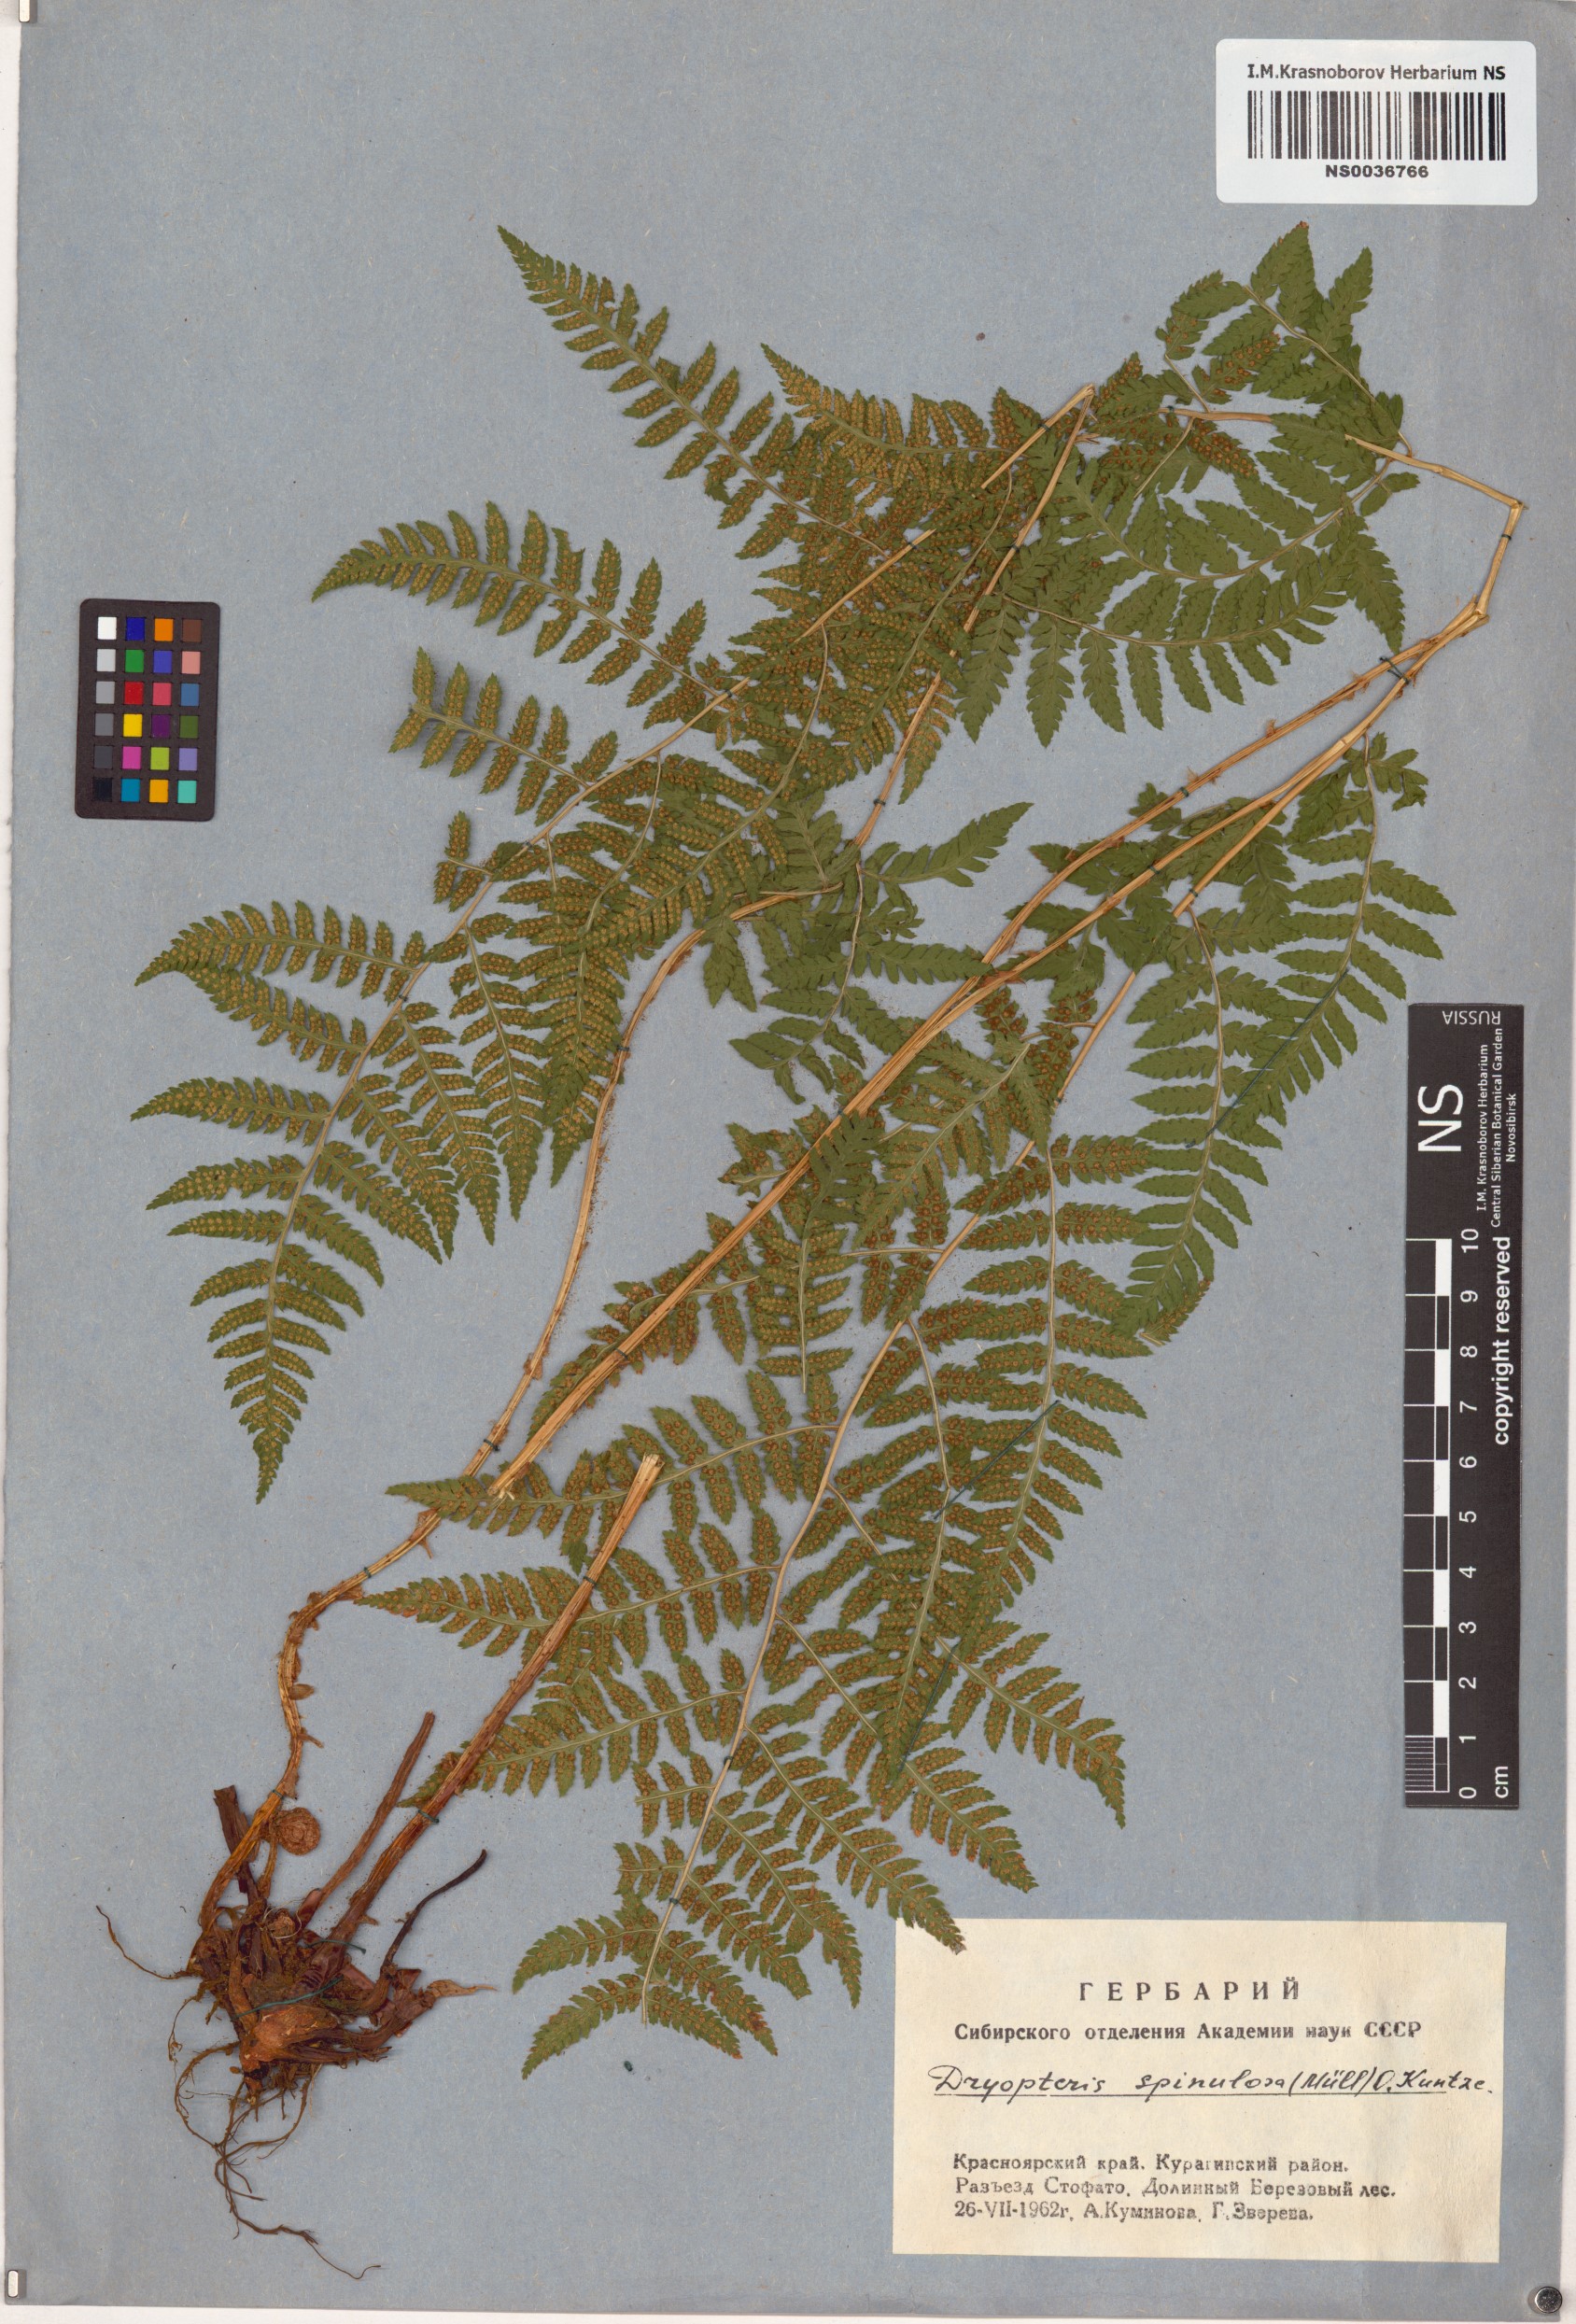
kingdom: Plantae
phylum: Tracheophyta
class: Polypodiopsida
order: Polypodiales
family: Dryopteridaceae
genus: Dryopteris
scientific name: Dryopteris carthusiana
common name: Narrow buckler-fern
